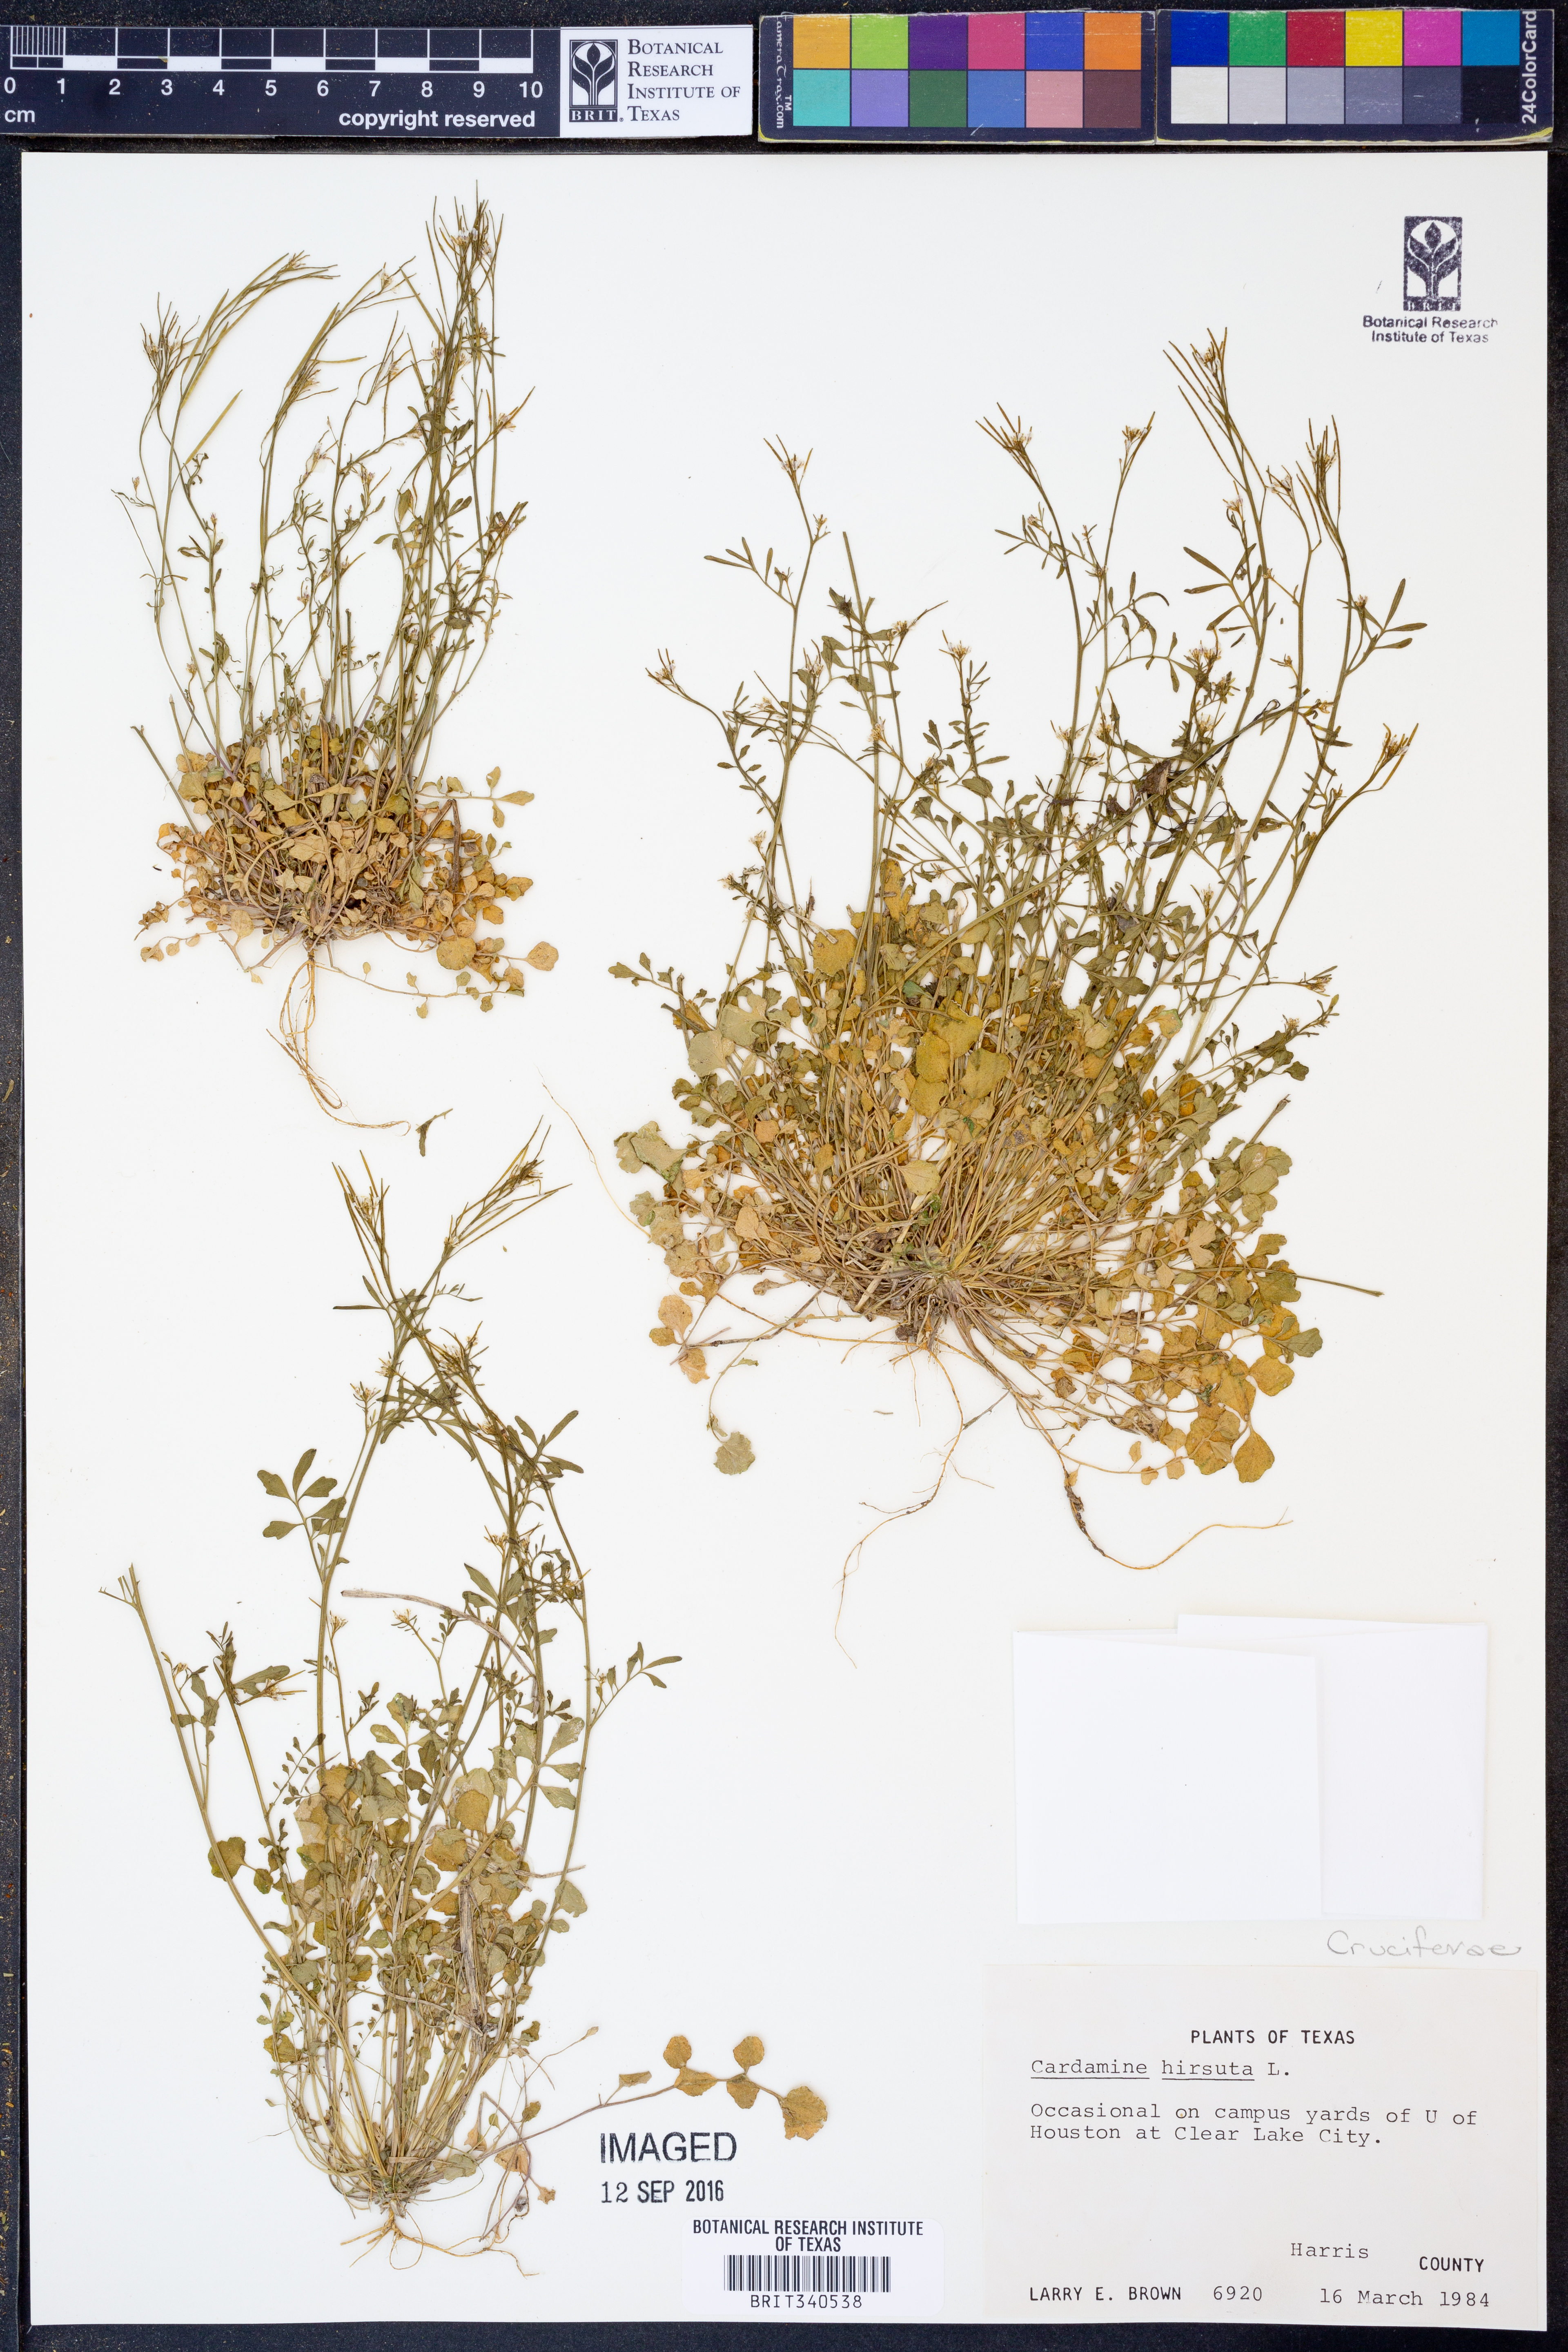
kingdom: Plantae
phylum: Tracheophyta
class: Magnoliopsida
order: Brassicales
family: Brassicaceae
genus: Cardamine
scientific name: Cardamine hirsuta
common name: Hairy bittercress
